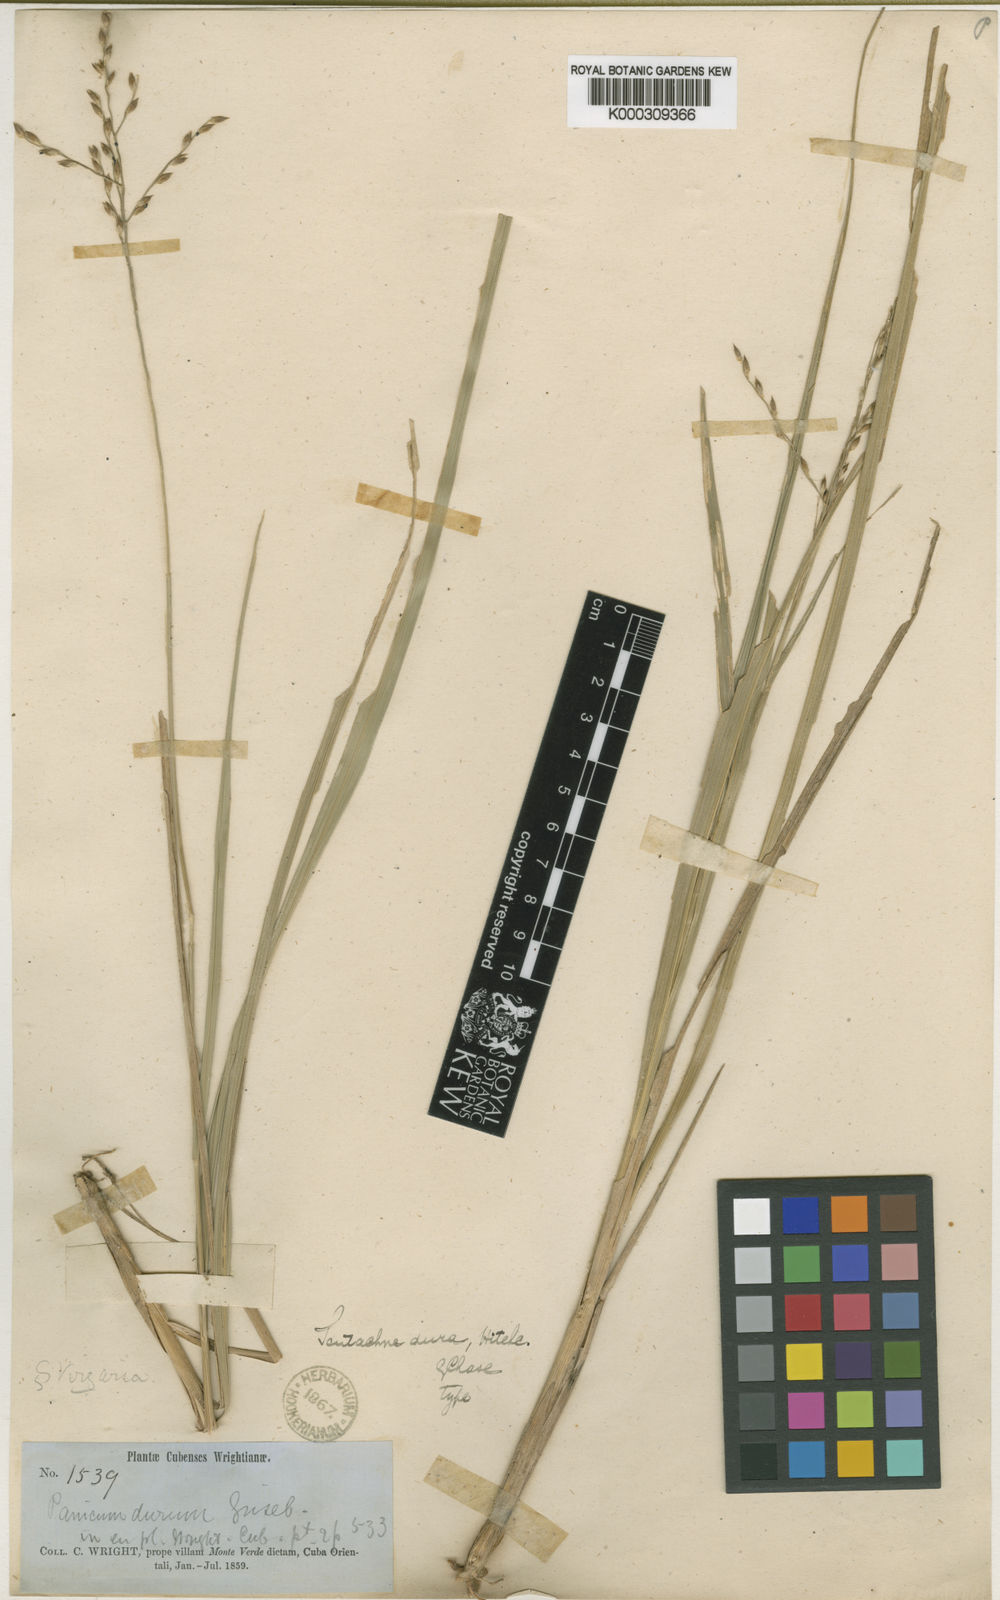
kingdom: Plantae
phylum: Tracheophyta
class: Liliopsida
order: Poales
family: Poaceae
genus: Scutachne
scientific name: Scutachne dura
